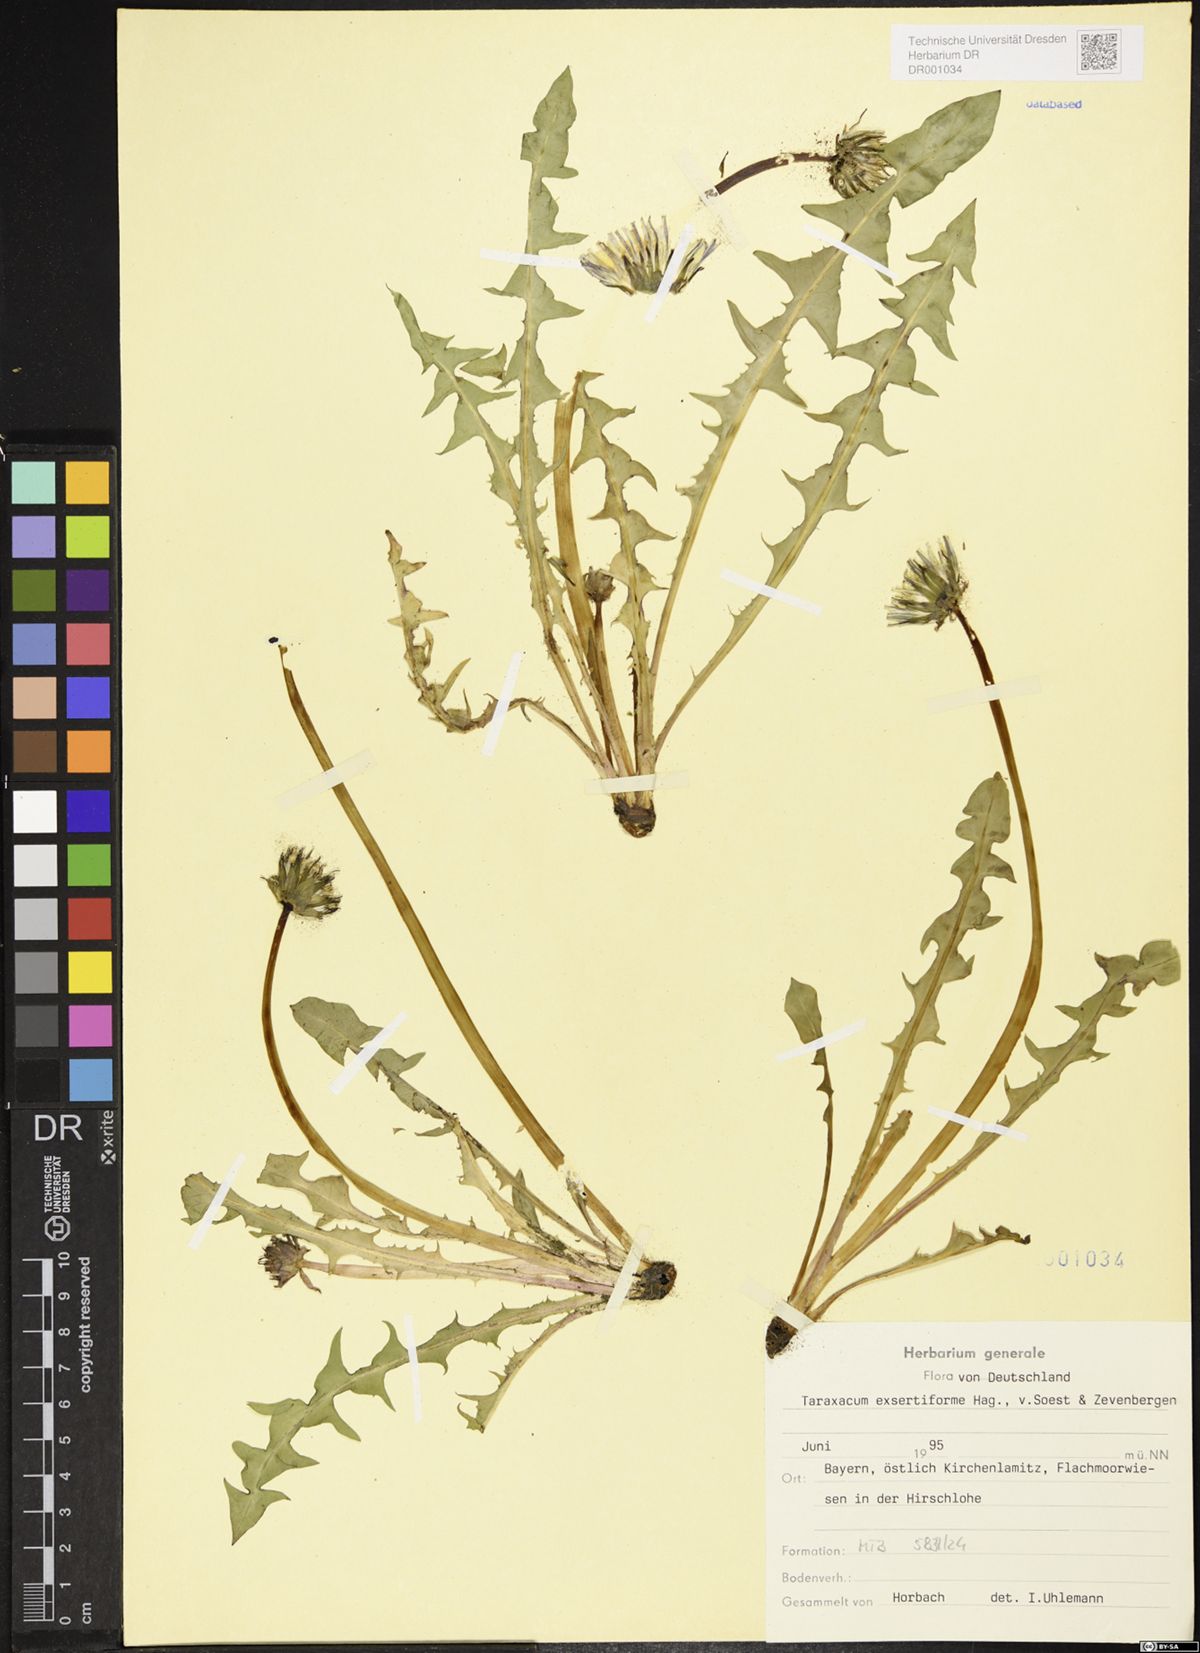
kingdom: Plantae
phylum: Tracheophyta
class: Magnoliopsida
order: Asterales
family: Asteraceae
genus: Taraxacum
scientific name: Taraxacum exsertiforme
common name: Erect-bracted dandelion
